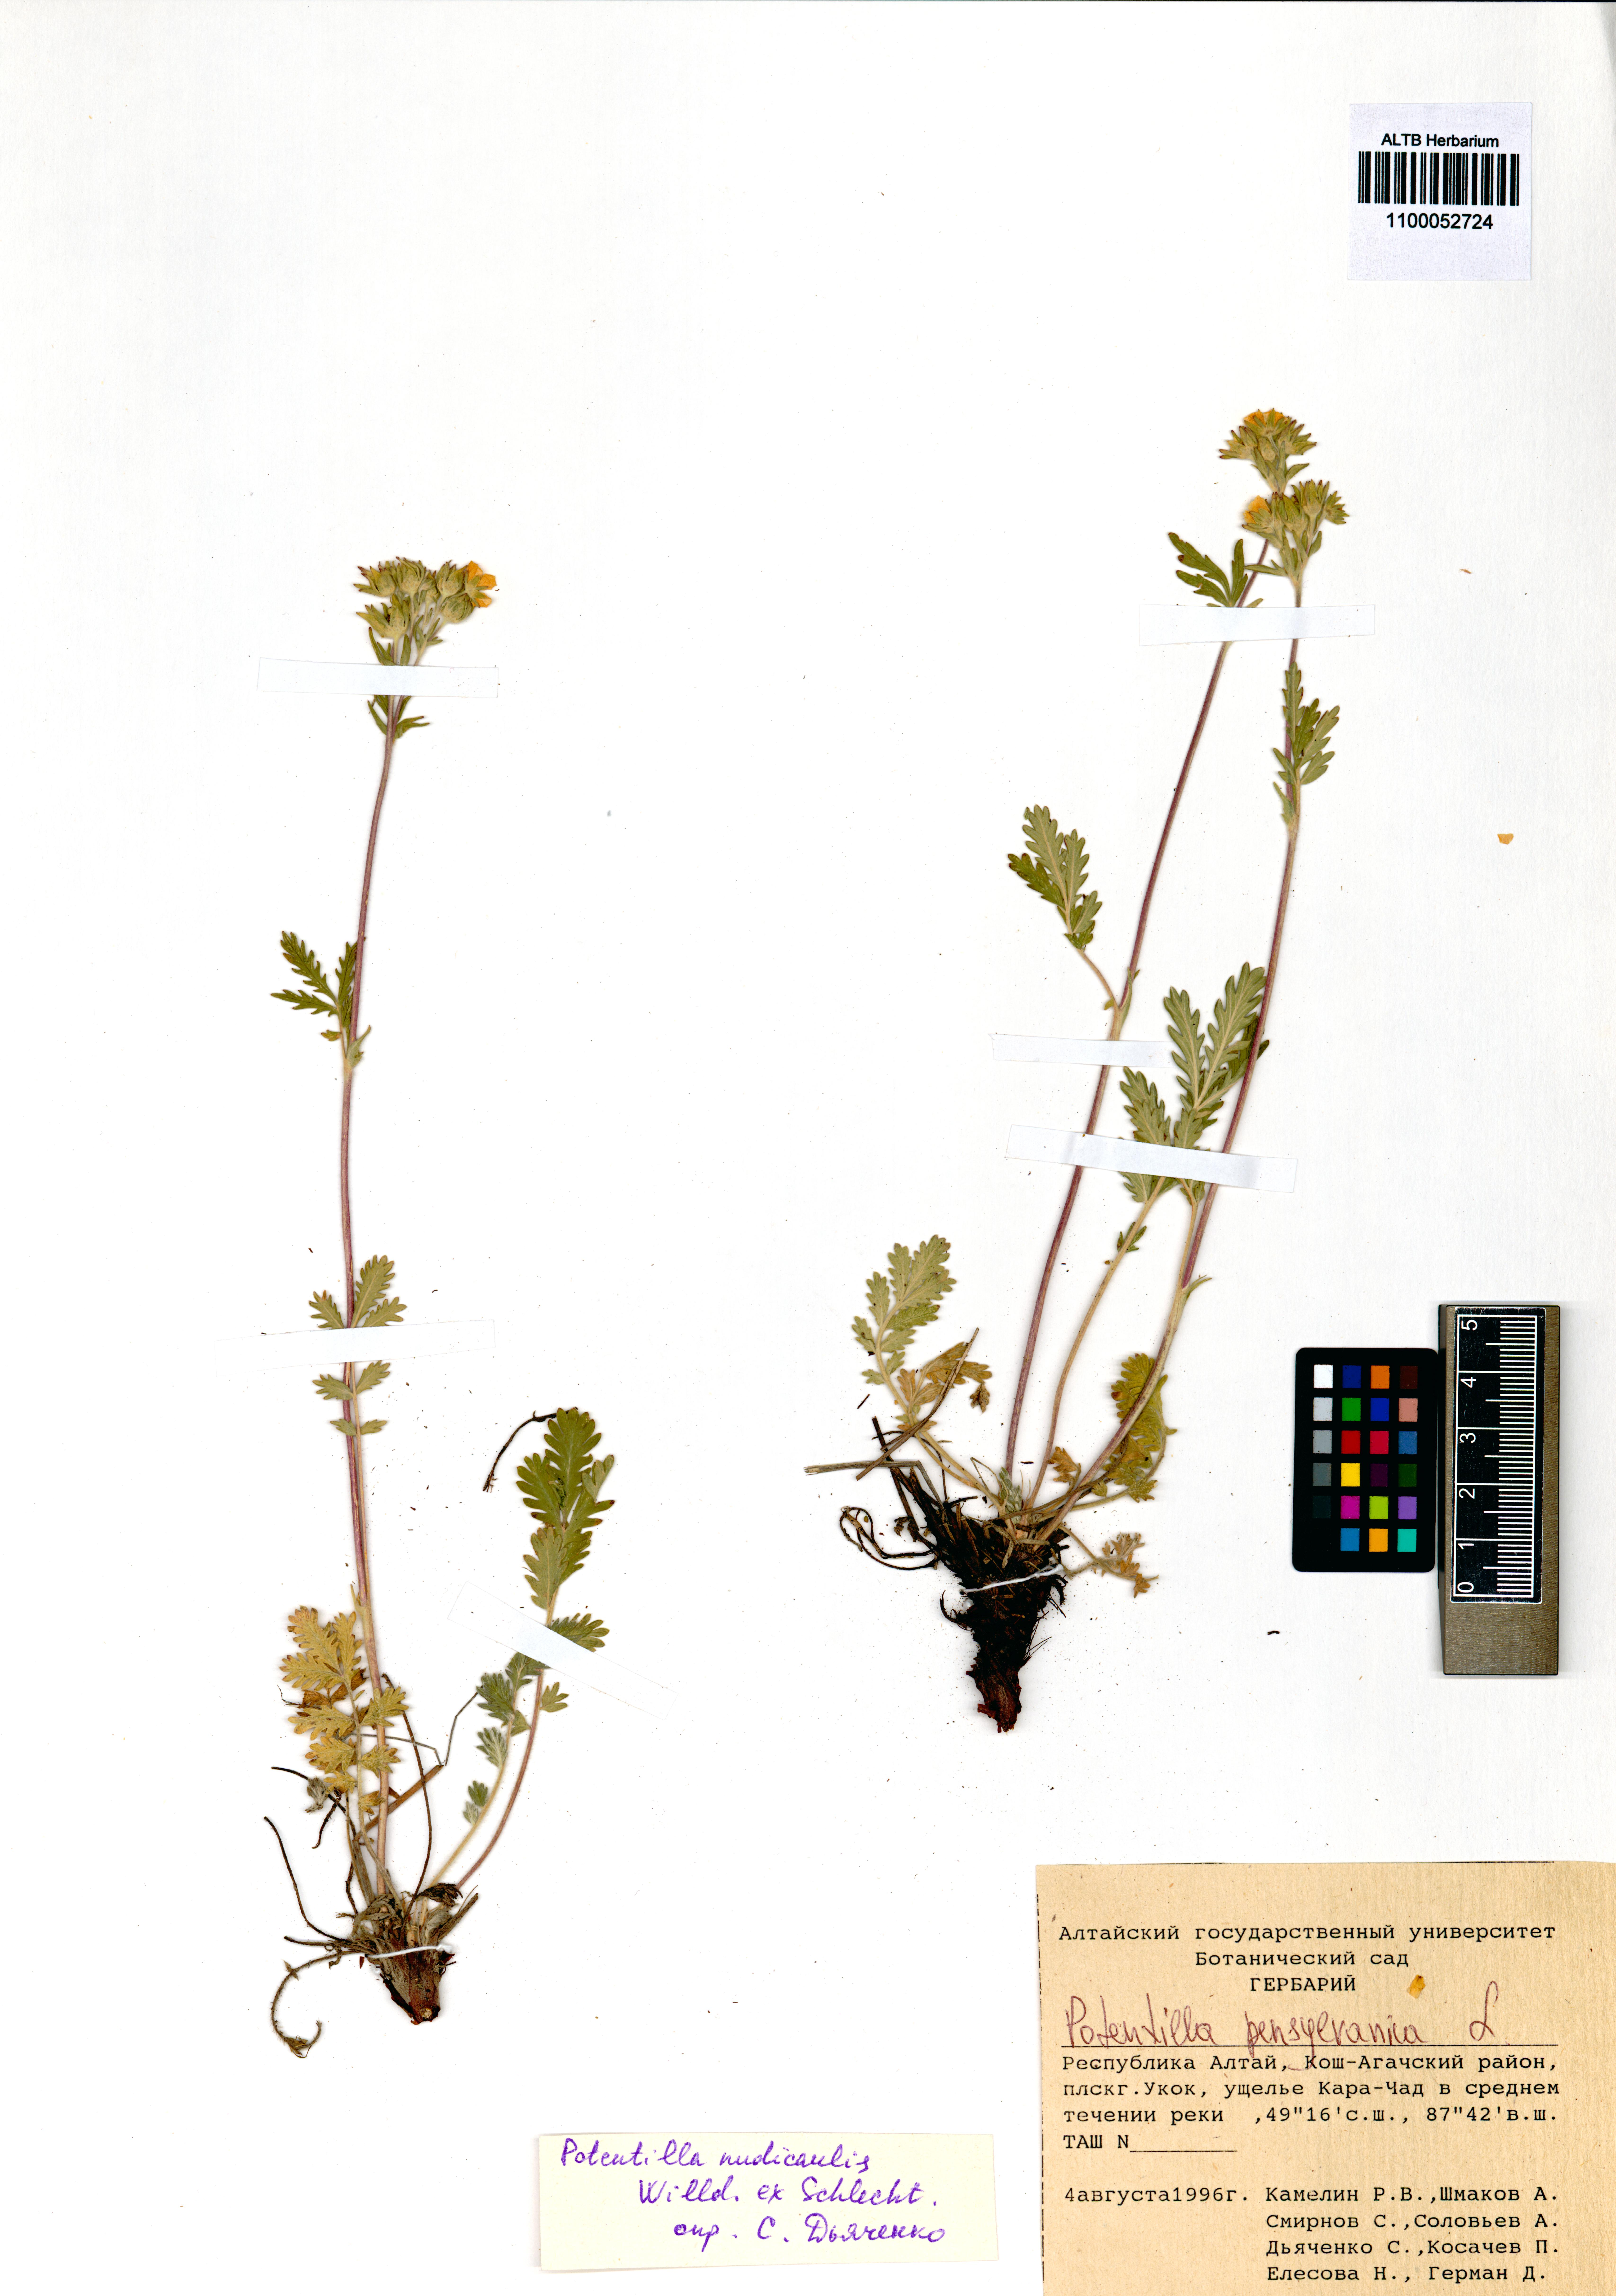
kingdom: Plantae
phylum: Tracheophyta
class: Magnoliopsida
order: Rosales
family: Rosaceae
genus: Potentilla
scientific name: Potentilla pensylvanica
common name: Pennsylvania cinquefoil
